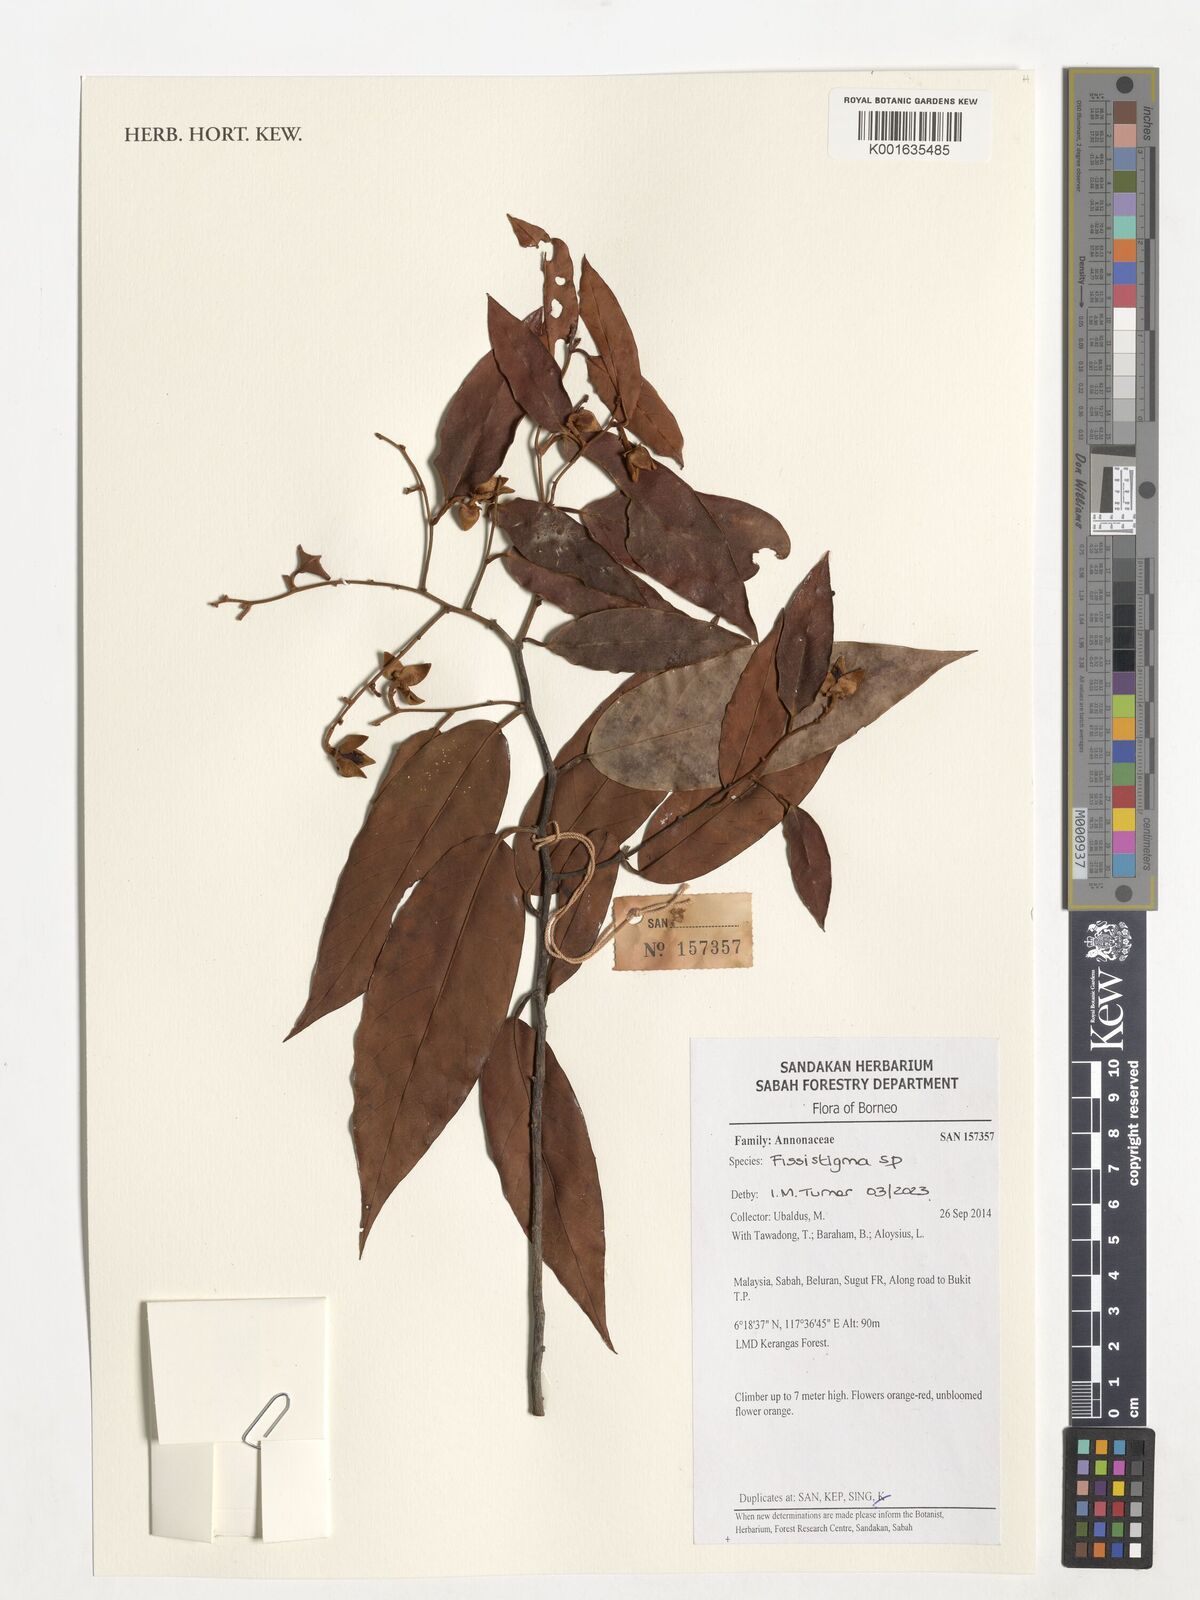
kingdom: Plantae
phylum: Tracheophyta
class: Magnoliopsida
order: Magnoliales
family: Annonaceae
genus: Fissistigma
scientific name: Fissistigma
